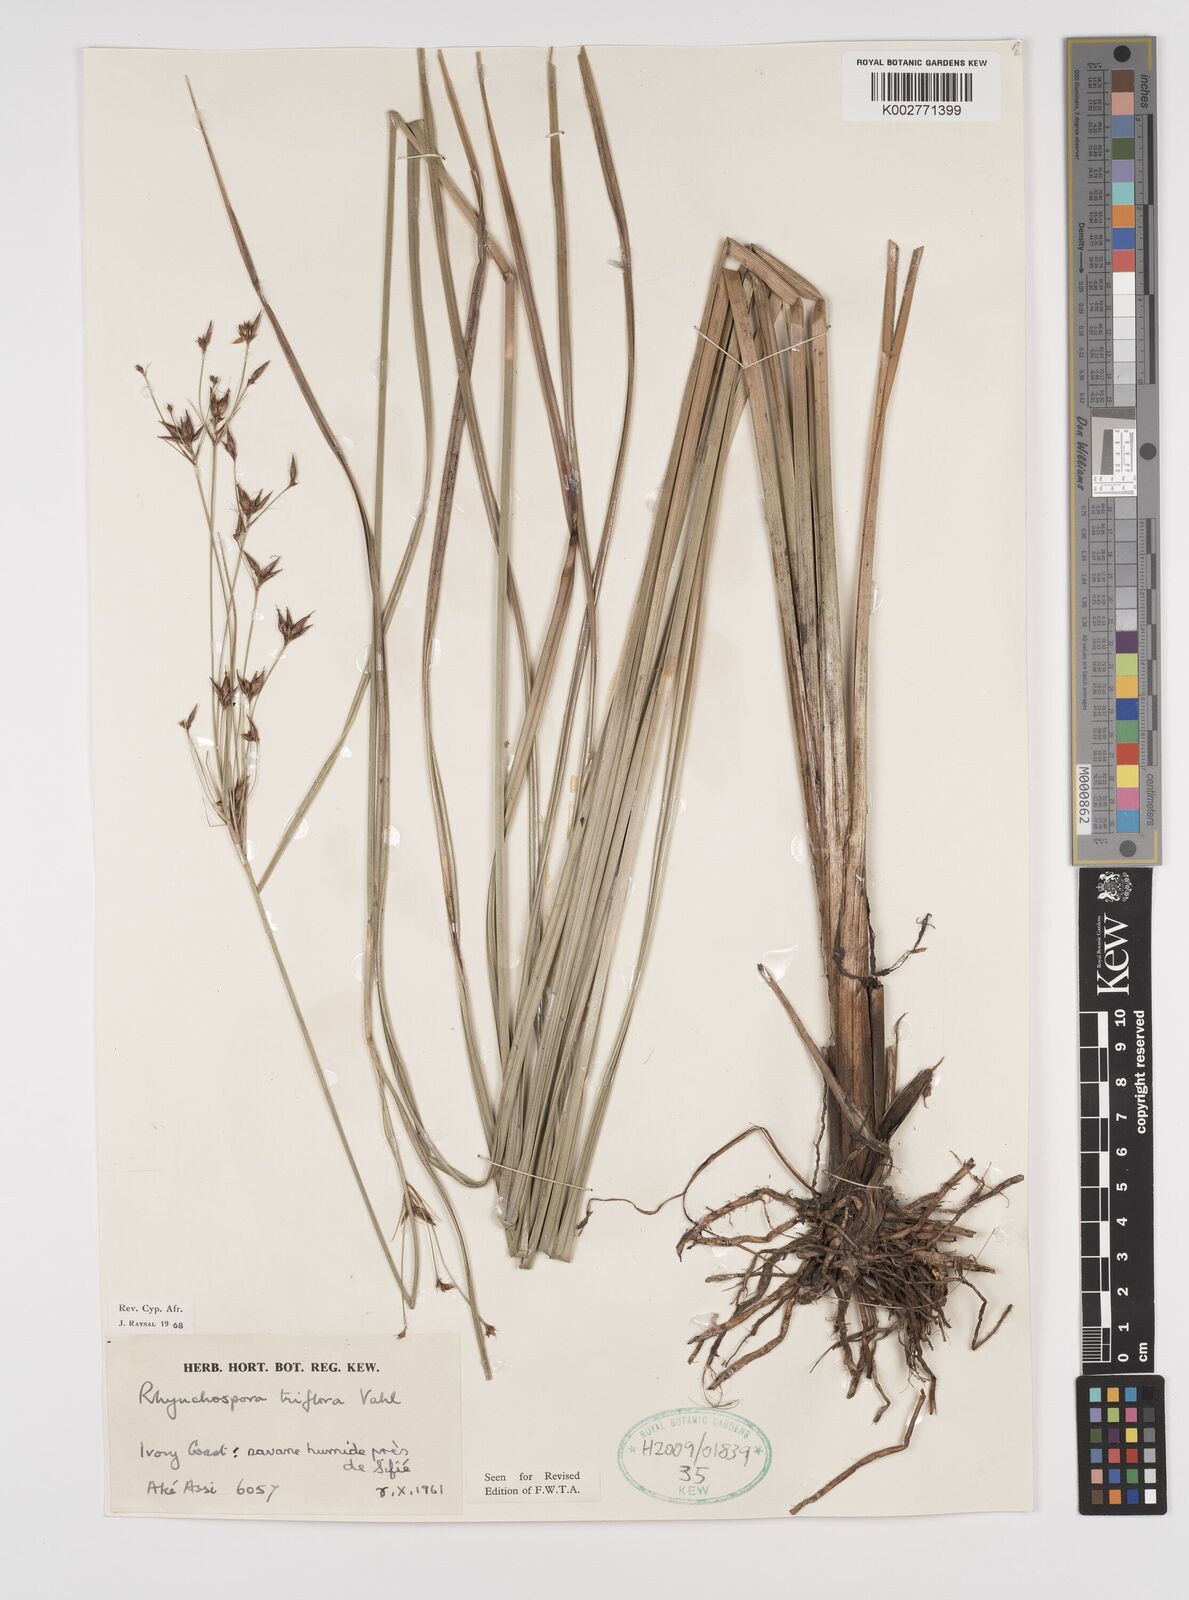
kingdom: Plantae
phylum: Tracheophyta
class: Liliopsida
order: Poales
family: Cyperaceae
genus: Rhynchospora
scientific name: Rhynchospora triflora
